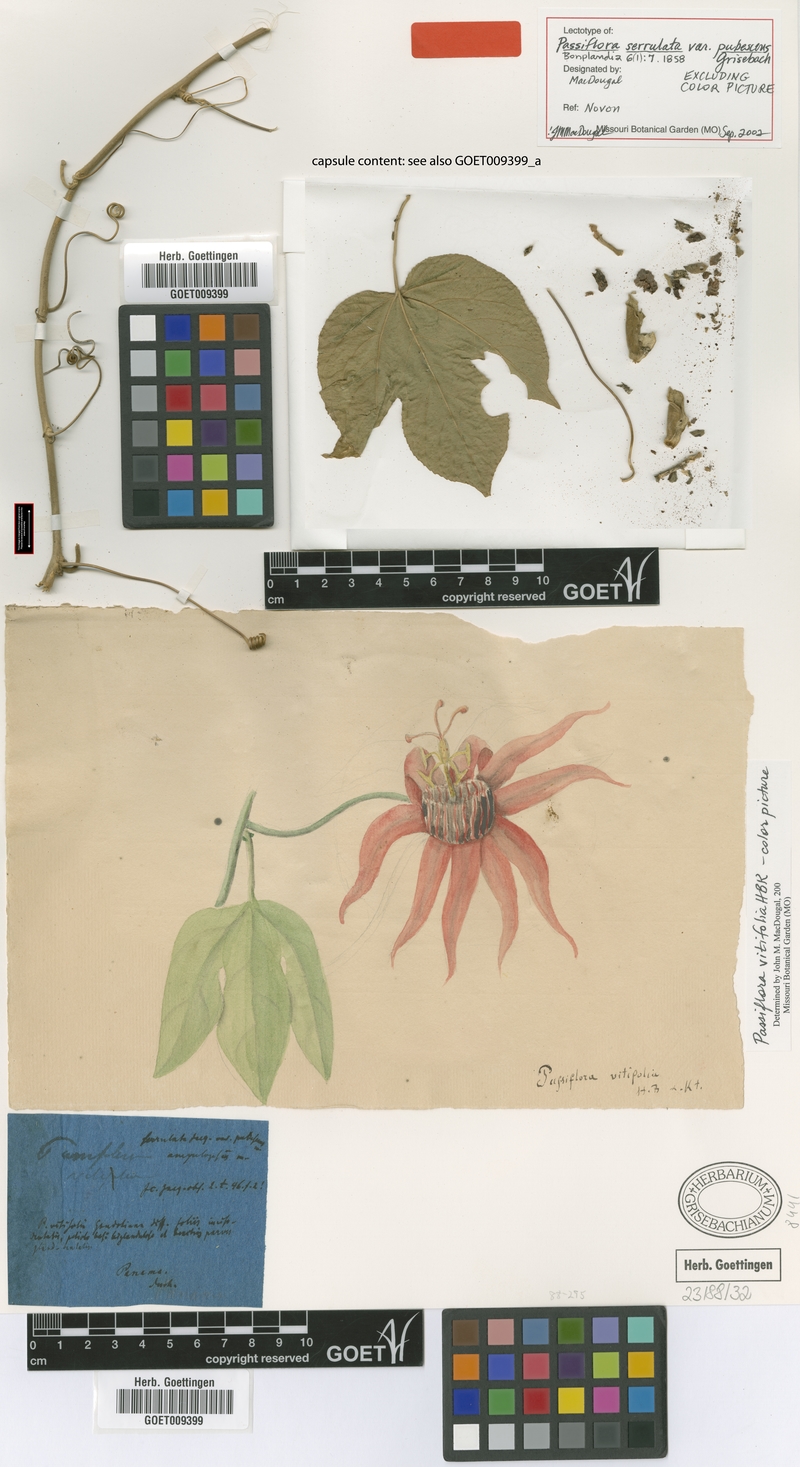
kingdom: Plantae
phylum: Tracheophyta
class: Magnoliopsida
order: Malpighiales
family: Passifloraceae
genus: Passiflora
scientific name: Passiflora platyloba
